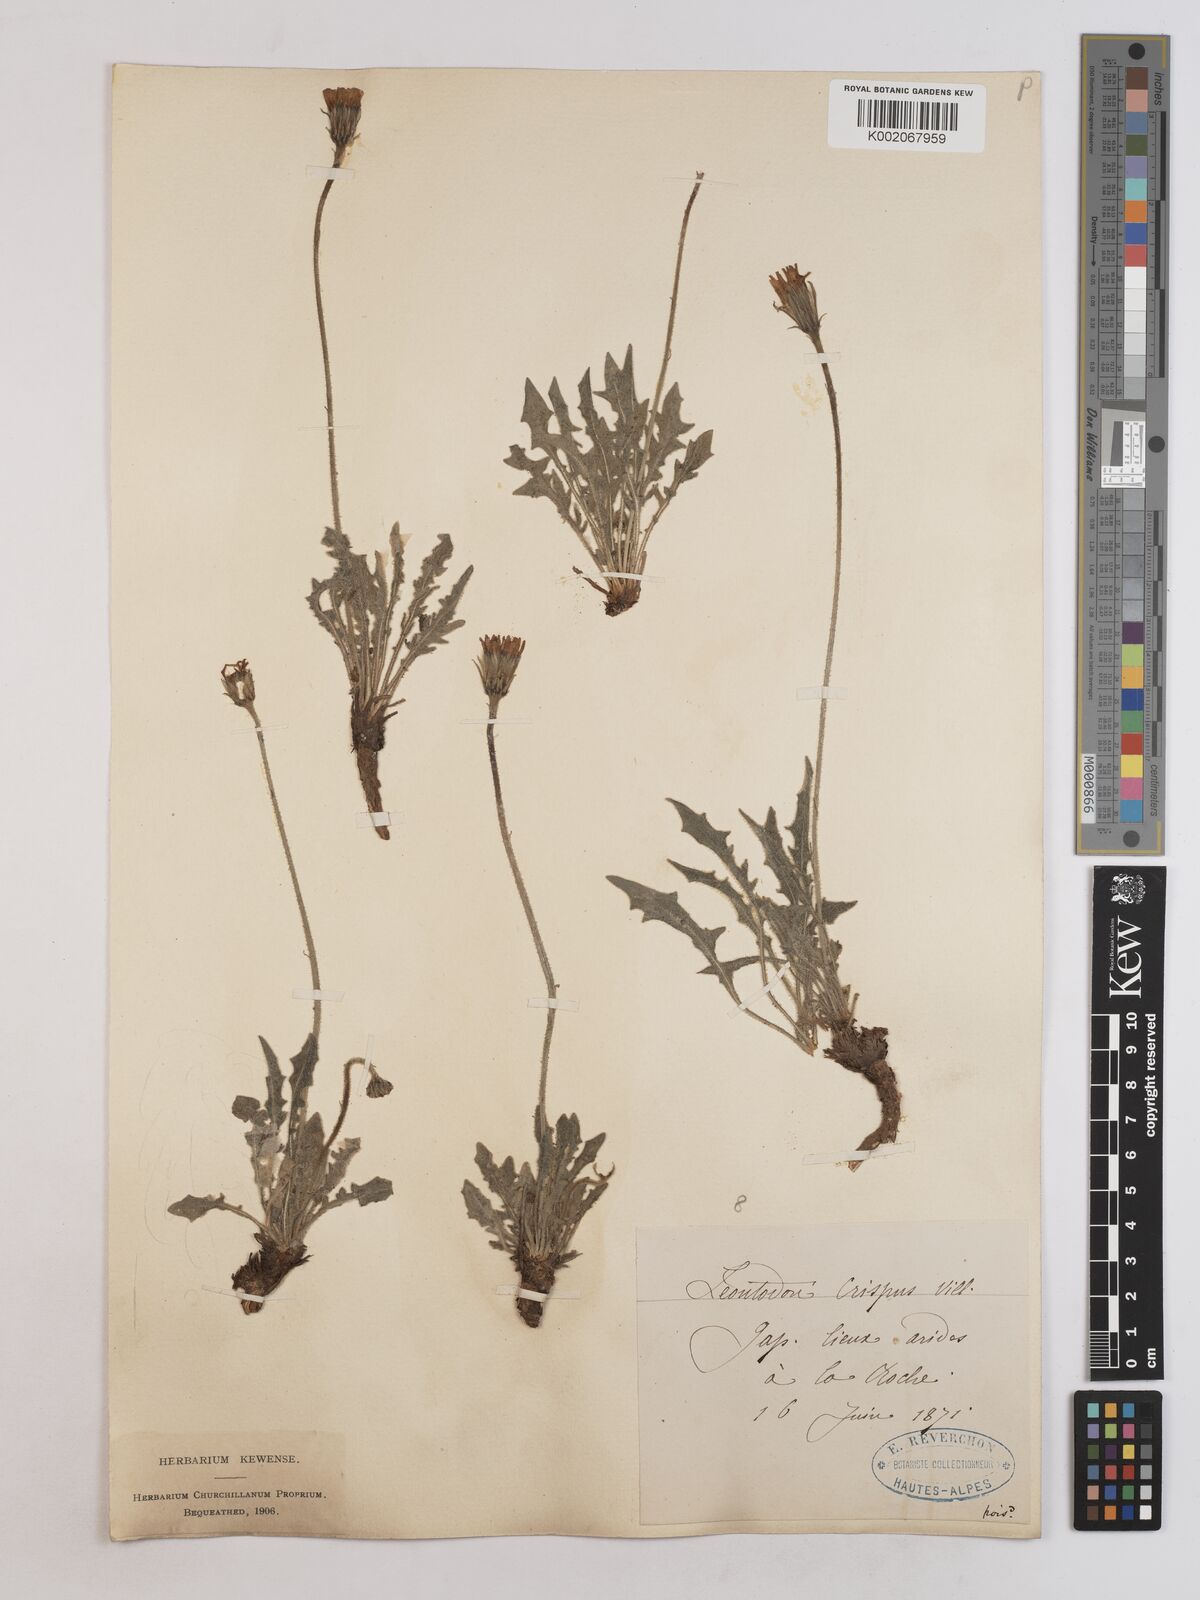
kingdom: Plantae
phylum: Tracheophyta
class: Magnoliopsida
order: Asterales
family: Asteraceae
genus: Leontodon
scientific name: Leontodon crispus
